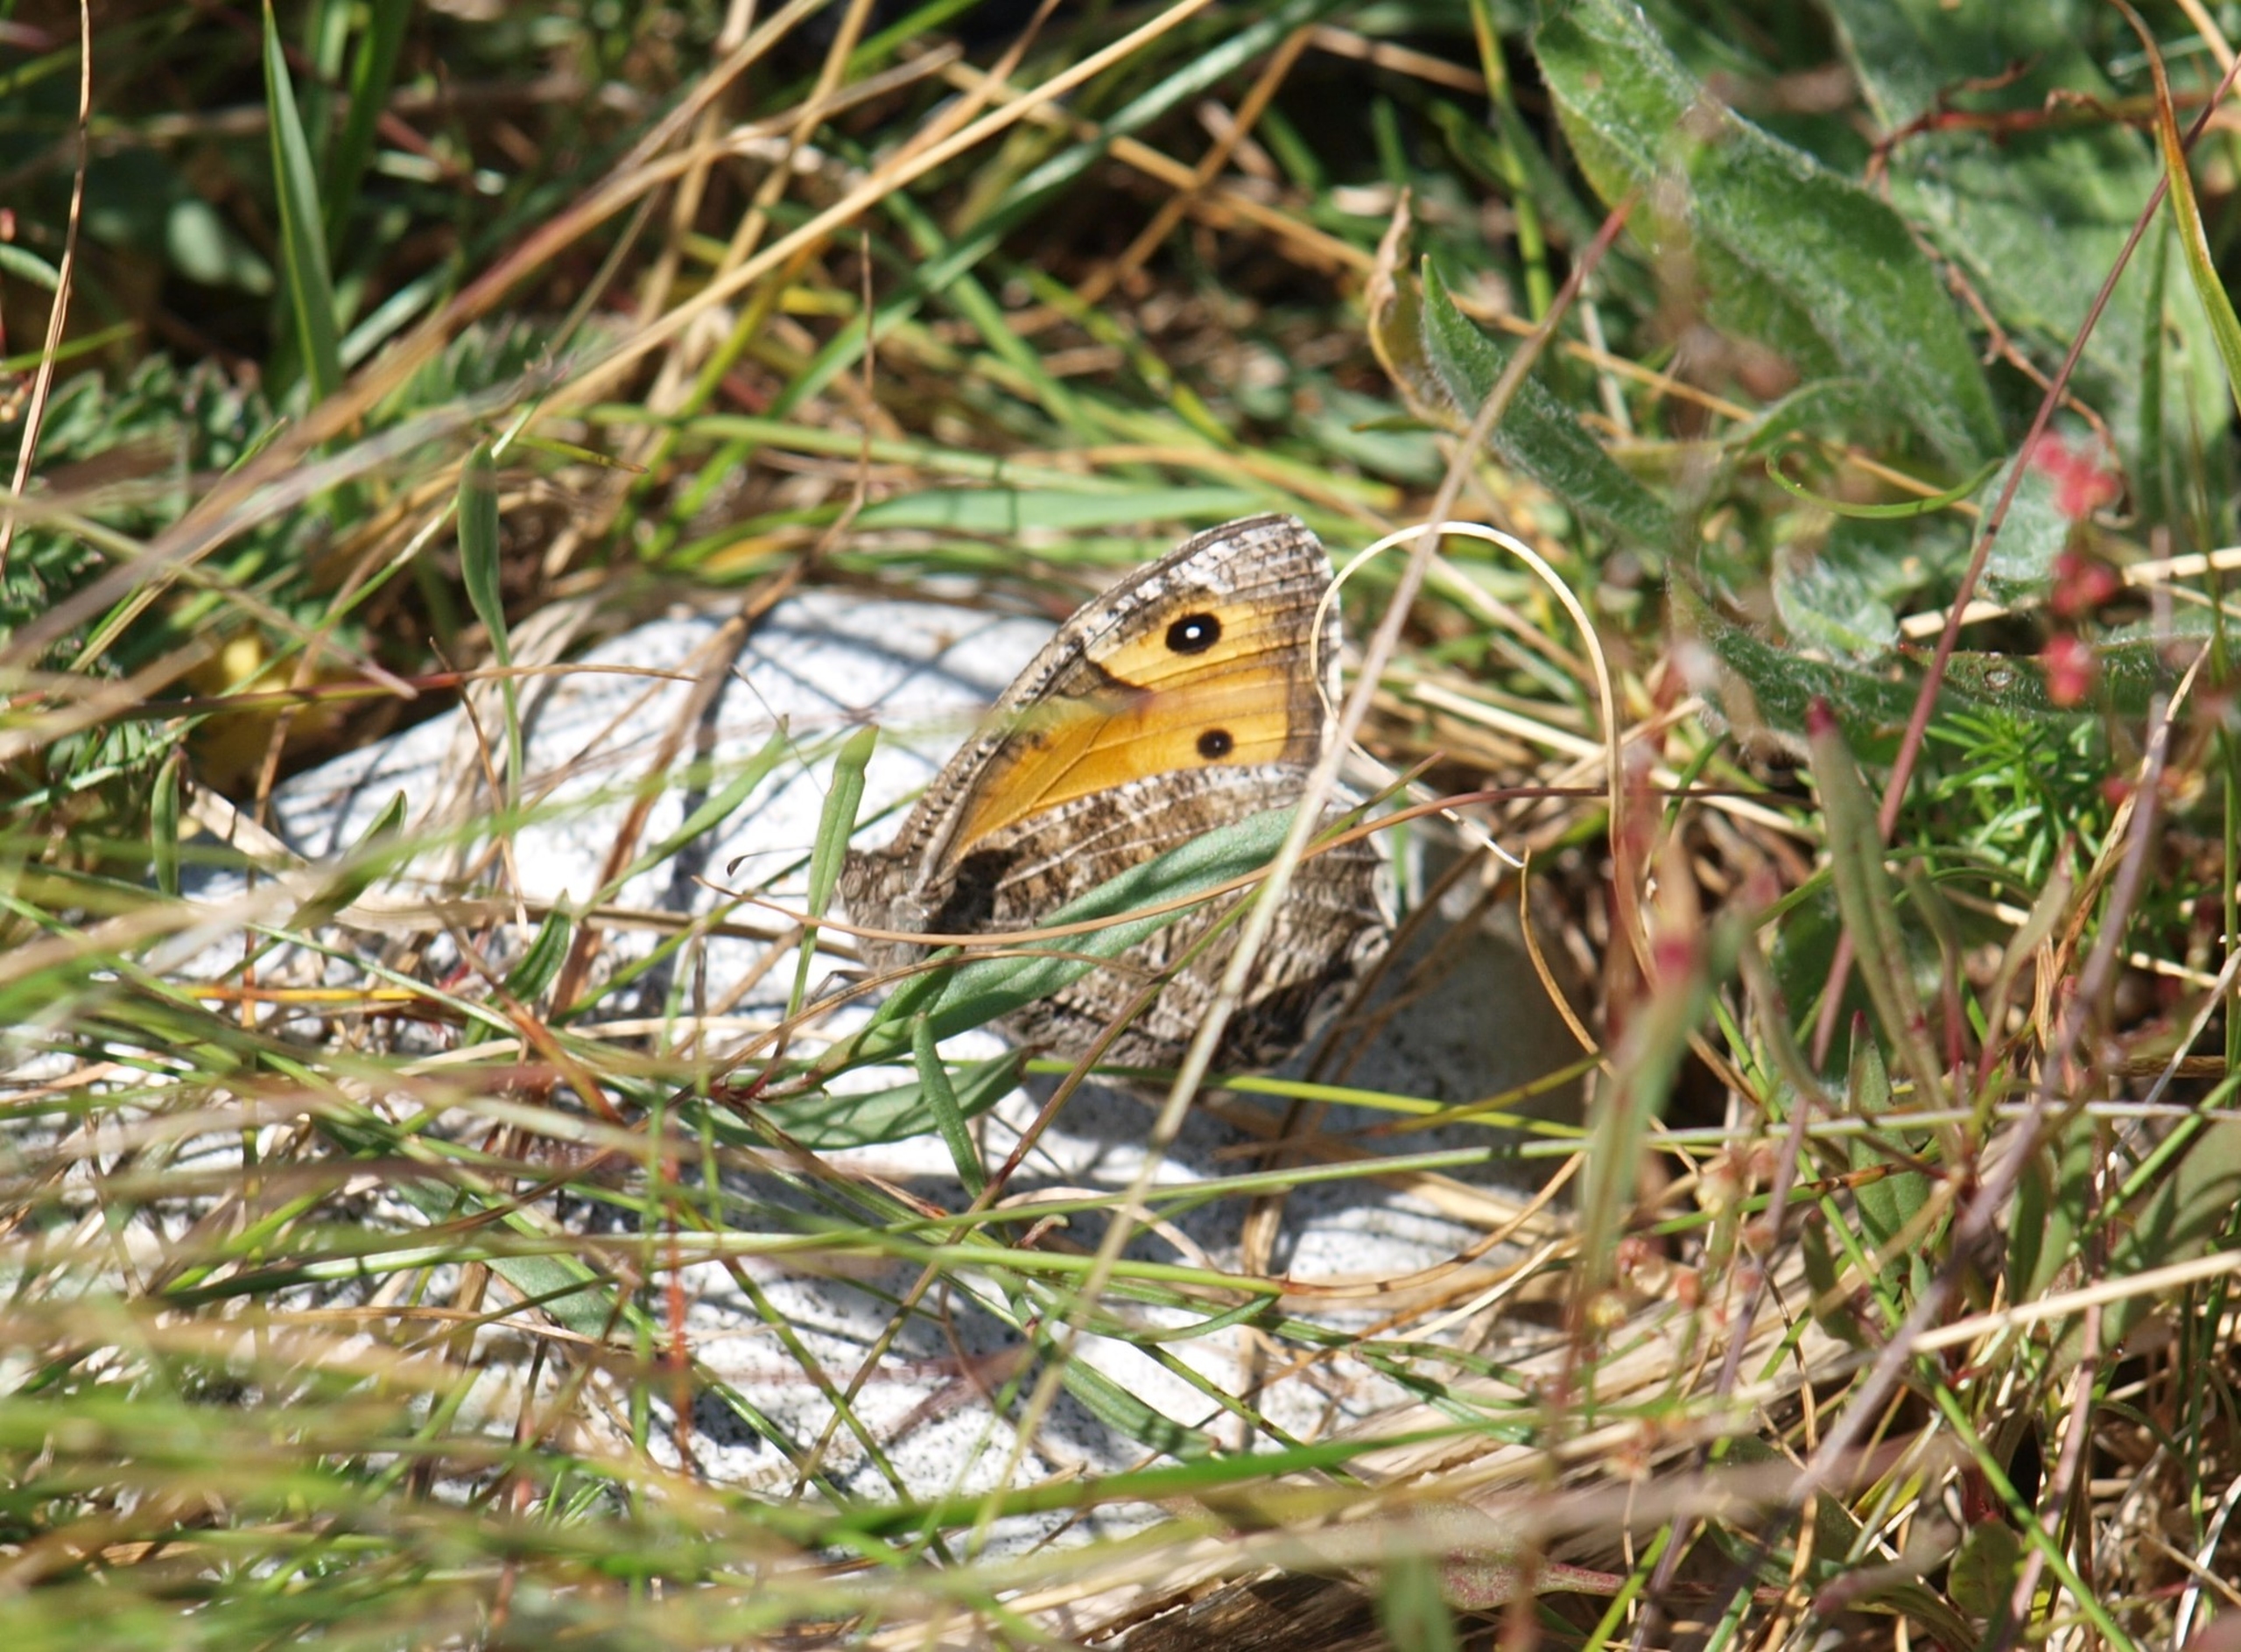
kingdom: Animalia
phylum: Arthropoda
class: Insecta
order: Lepidoptera
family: Nymphalidae
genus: Hipparchia
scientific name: Hipparchia semele
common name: Sandrandøje
